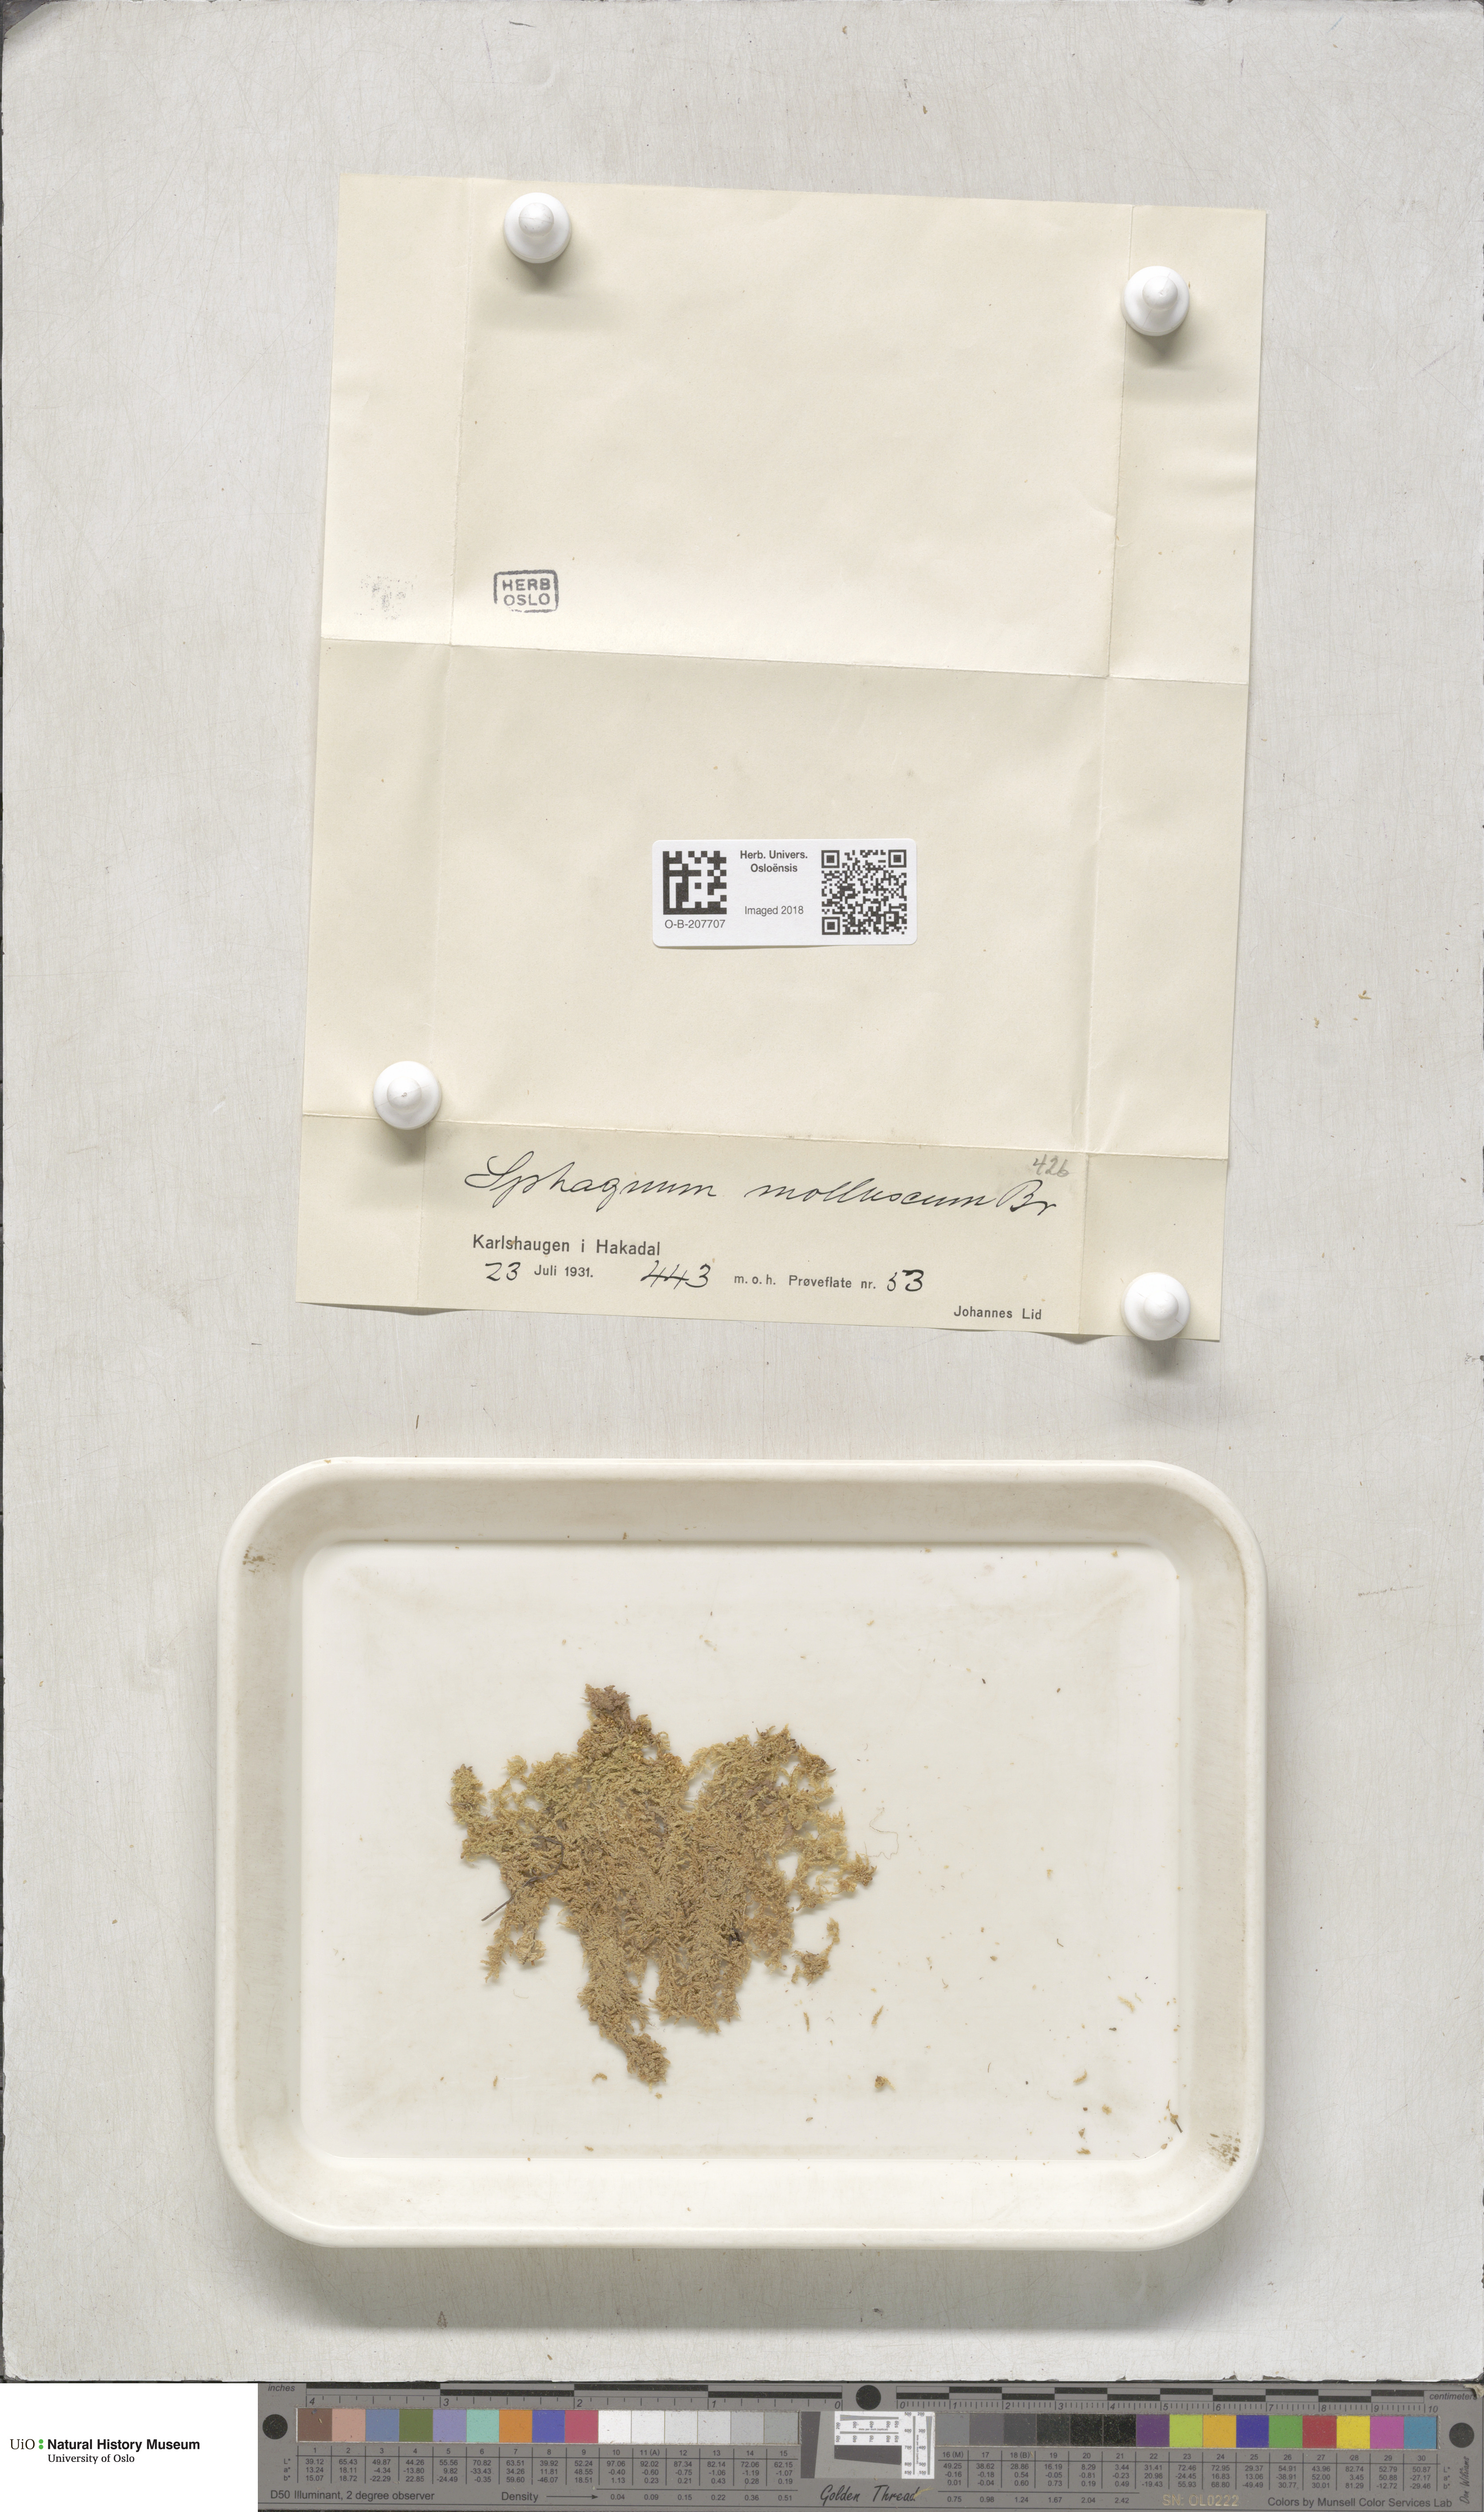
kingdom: Plantae
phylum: Bryophyta
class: Sphagnopsida
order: Sphagnales
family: Sphagnaceae
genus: Sphagnum
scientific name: Sphagnum tenellum
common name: Soft bog-moss
